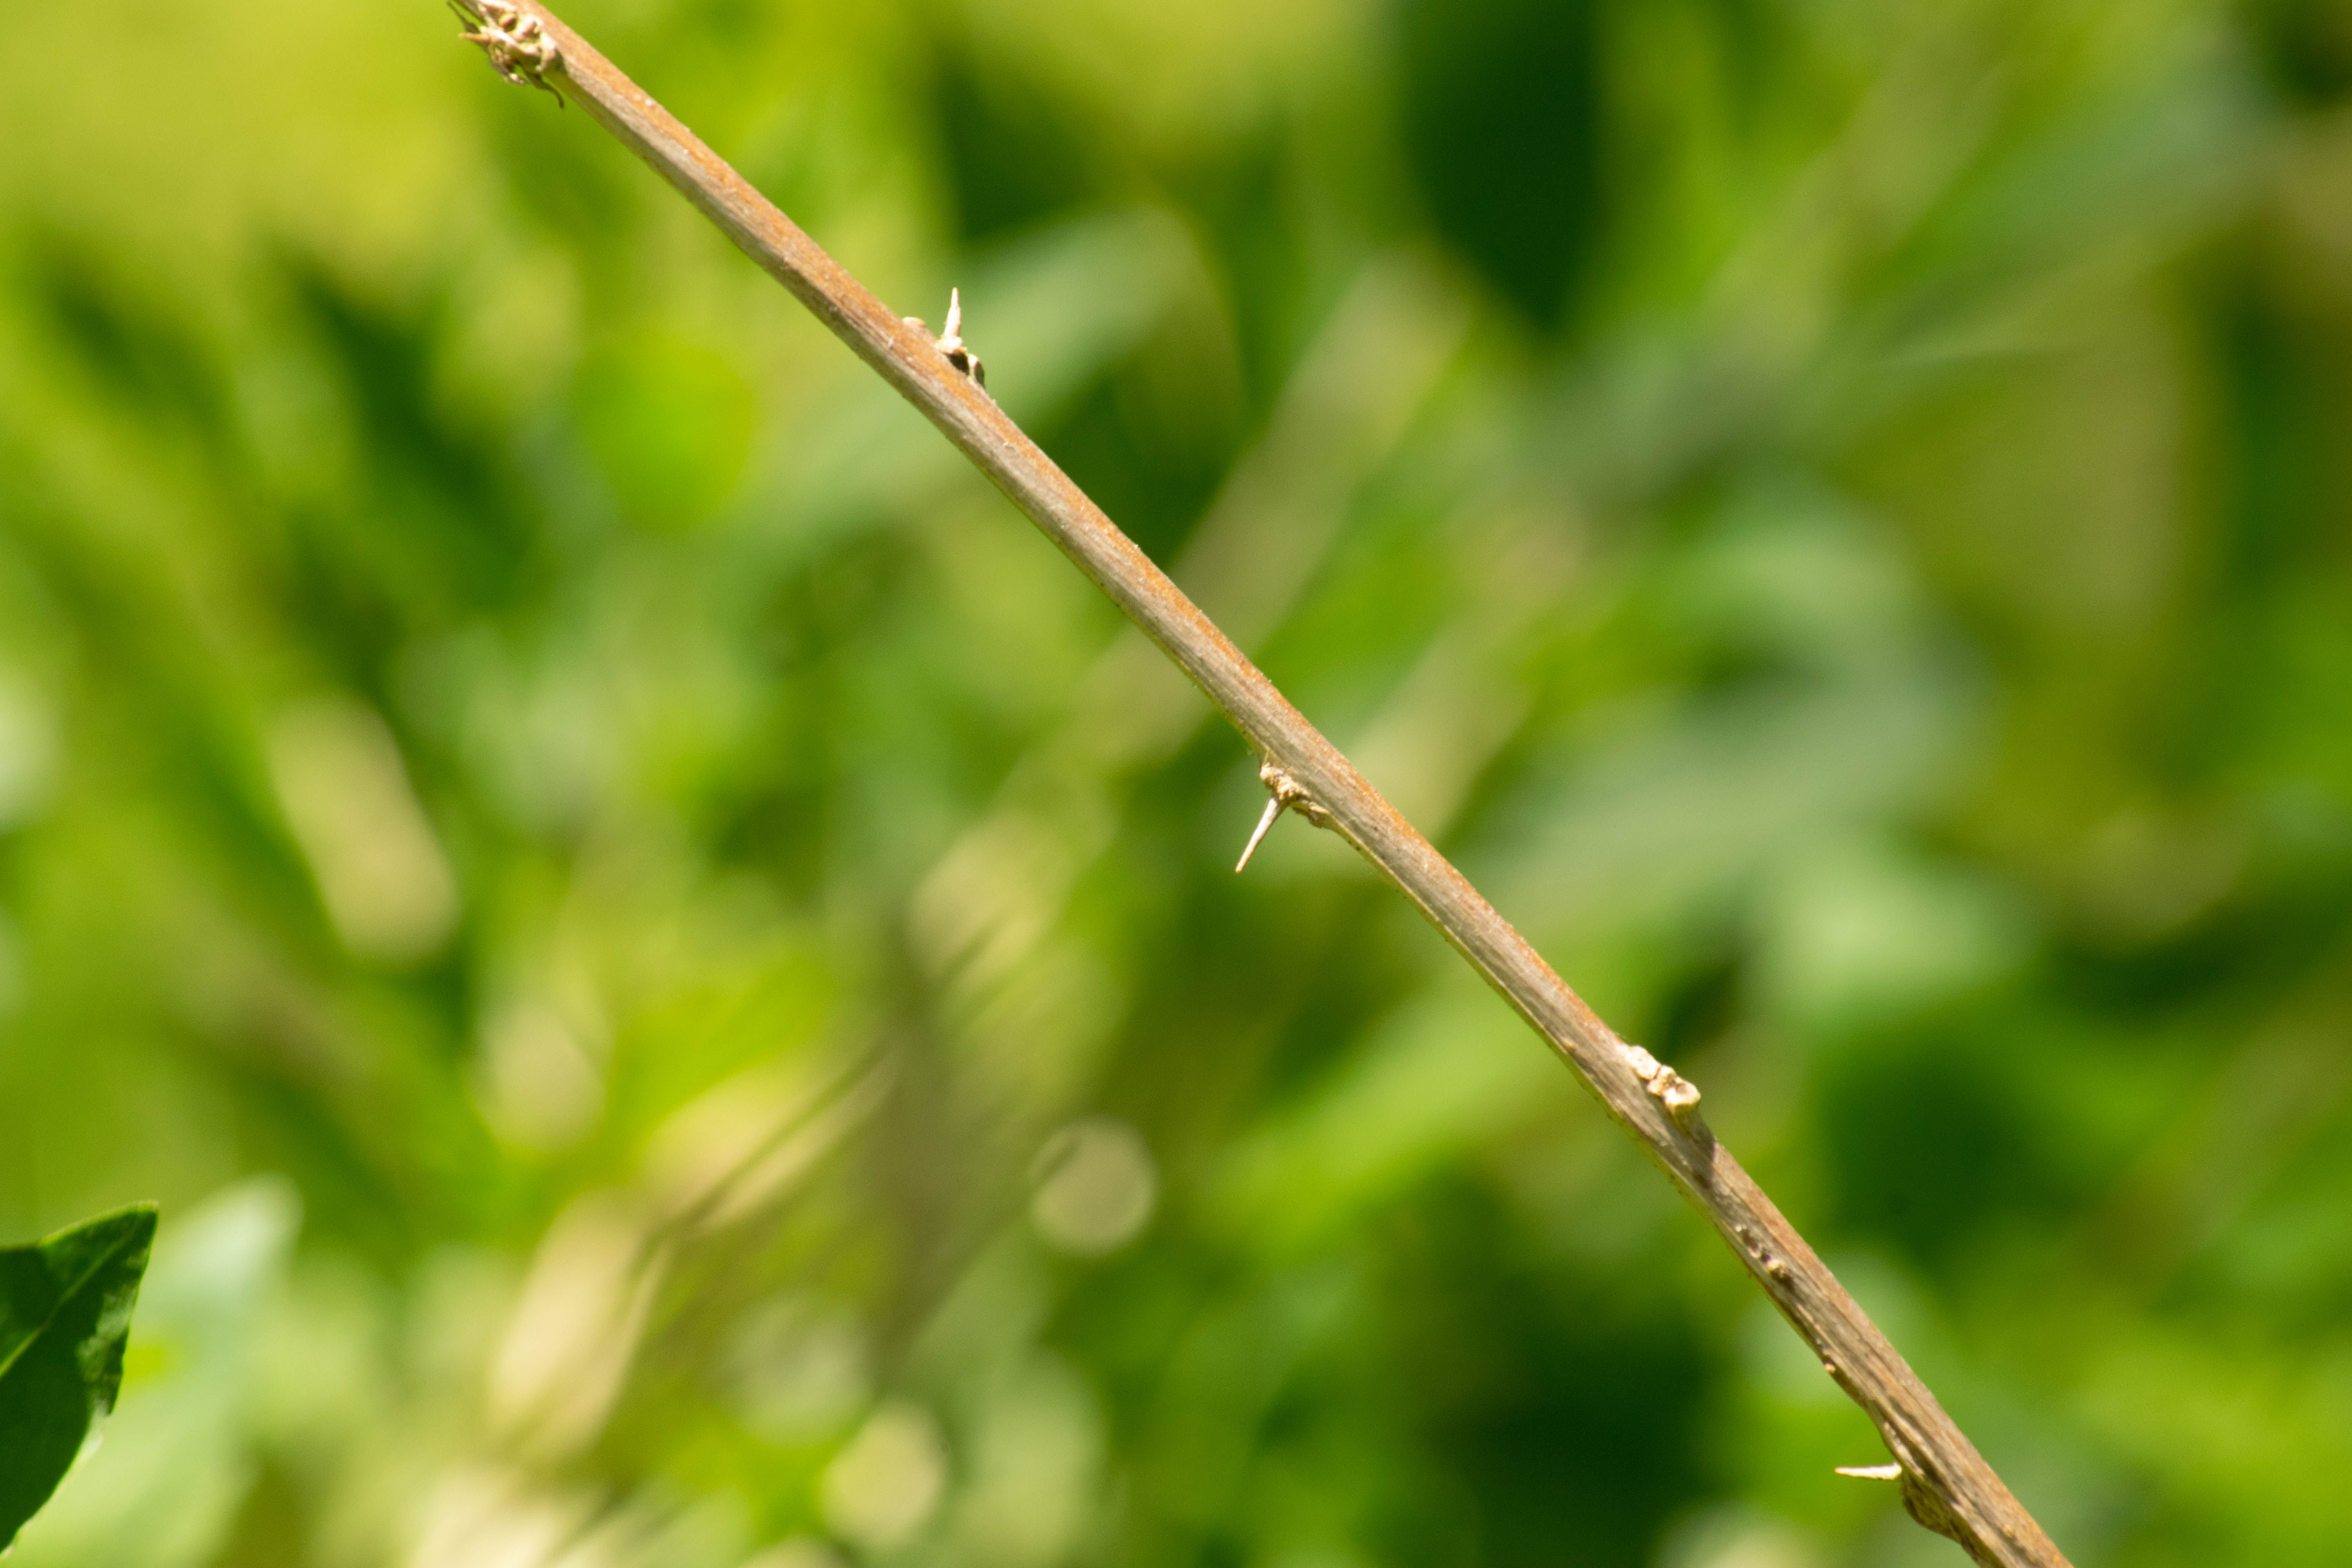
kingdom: Plantae
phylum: Tracheophyta
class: Magnoliopsida
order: Solanales
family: Solanaceae
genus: Lycium
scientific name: Lycium barbarum
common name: Duke of argyll's teaplant
